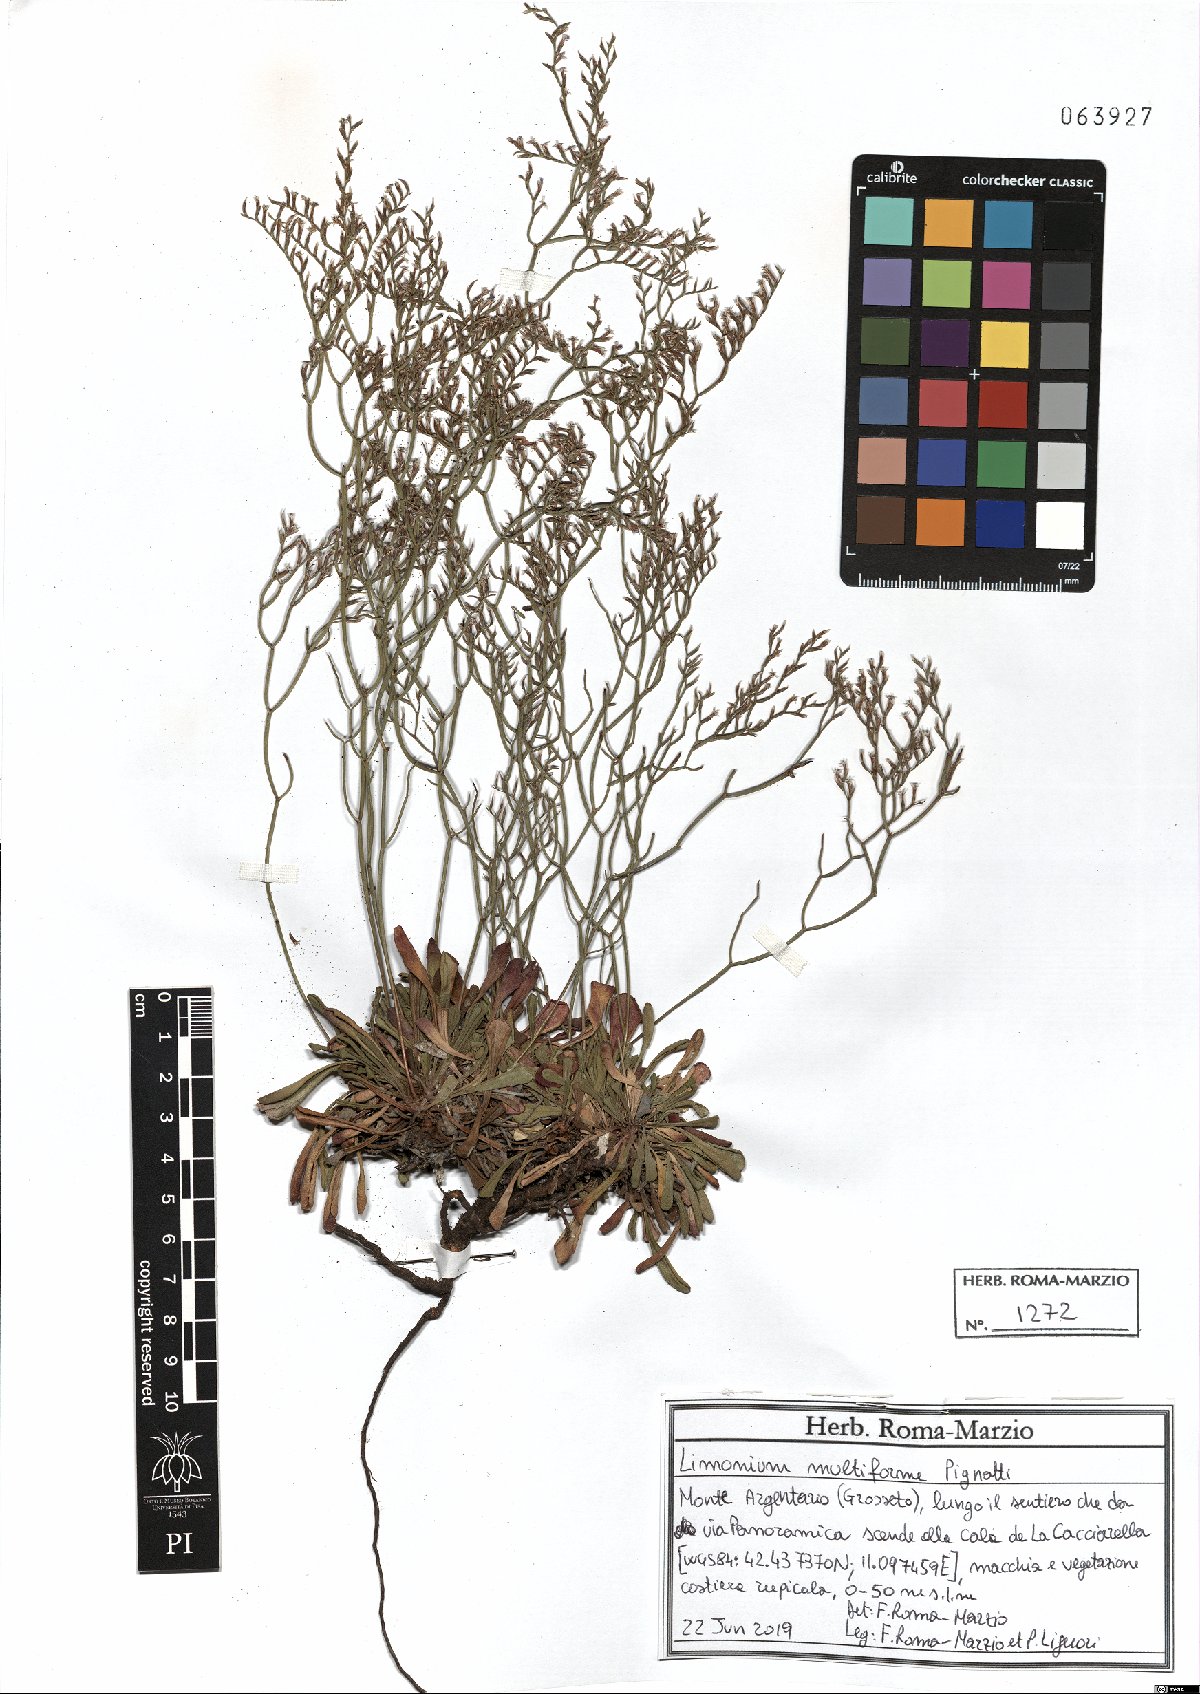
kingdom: Plantae
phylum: Tracheophyta
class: Magnoliopsida
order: Caryophyllales
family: Plumbaginaceae
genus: Limonium
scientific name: Limonium multiforme
